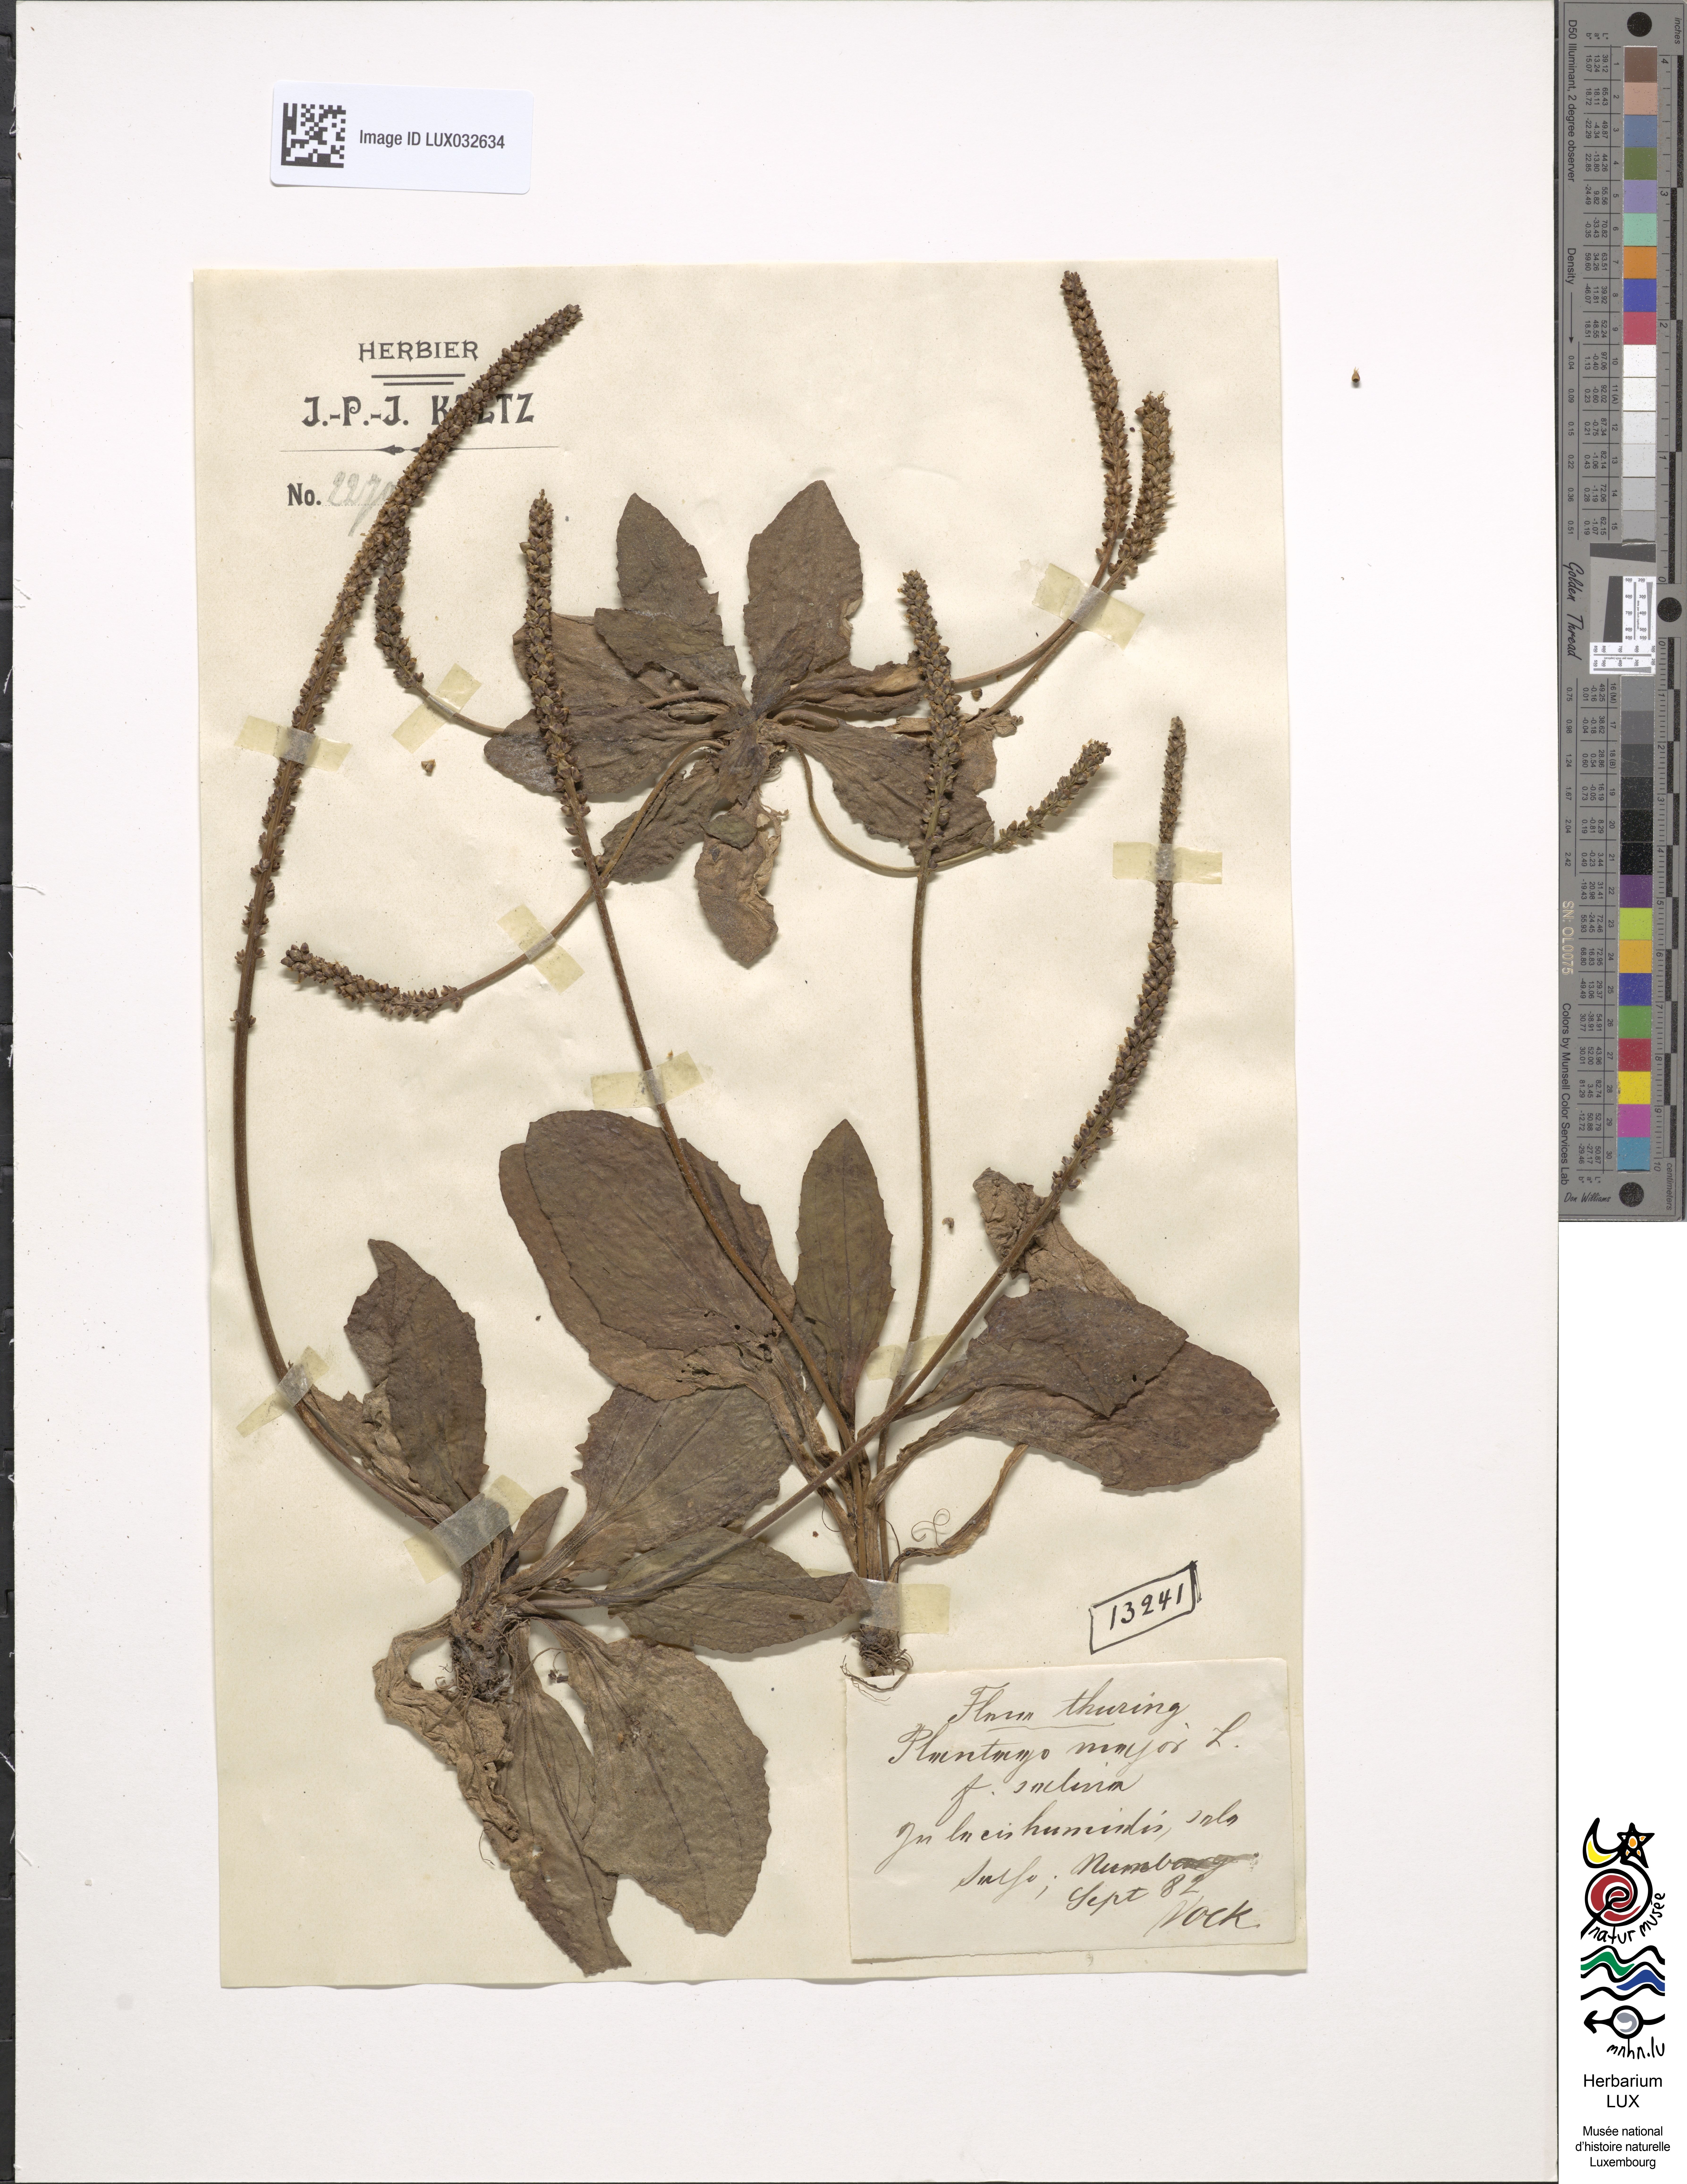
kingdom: Plantae
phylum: Tracheophyta
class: Magnoliopsida
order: Lamiales
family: Plantaginaceae
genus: Plantago
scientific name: Plantago major
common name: Common plantain
